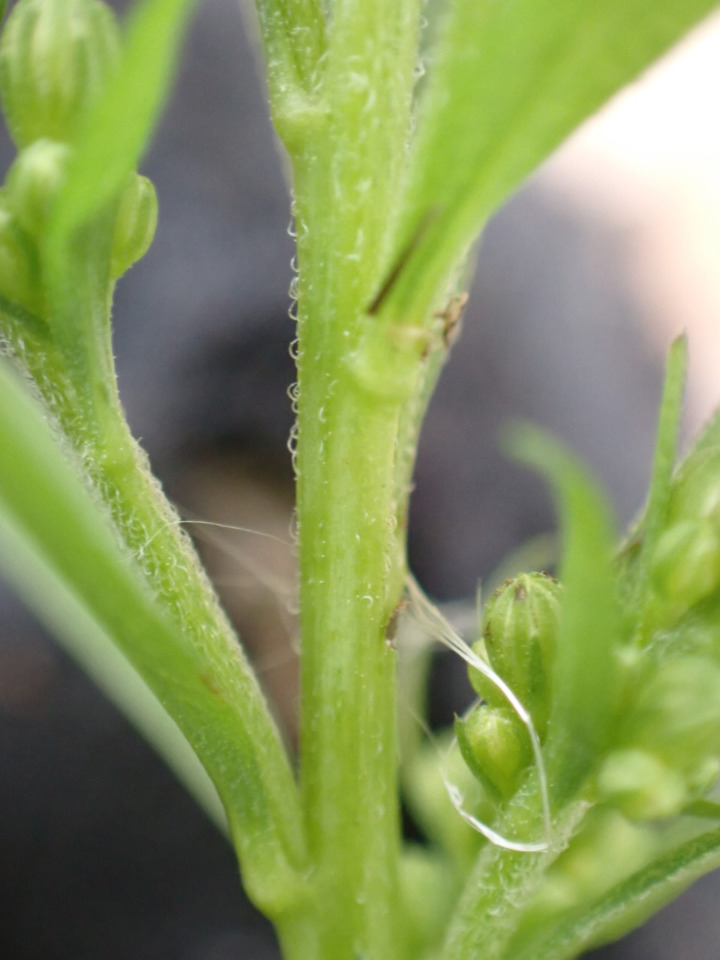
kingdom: Plantae
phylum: Tracheophyta
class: Magnoliopsida
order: Asterales
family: Asteraceae
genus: Solidago
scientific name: Solidago gigantea
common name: Sildig gyldenris
